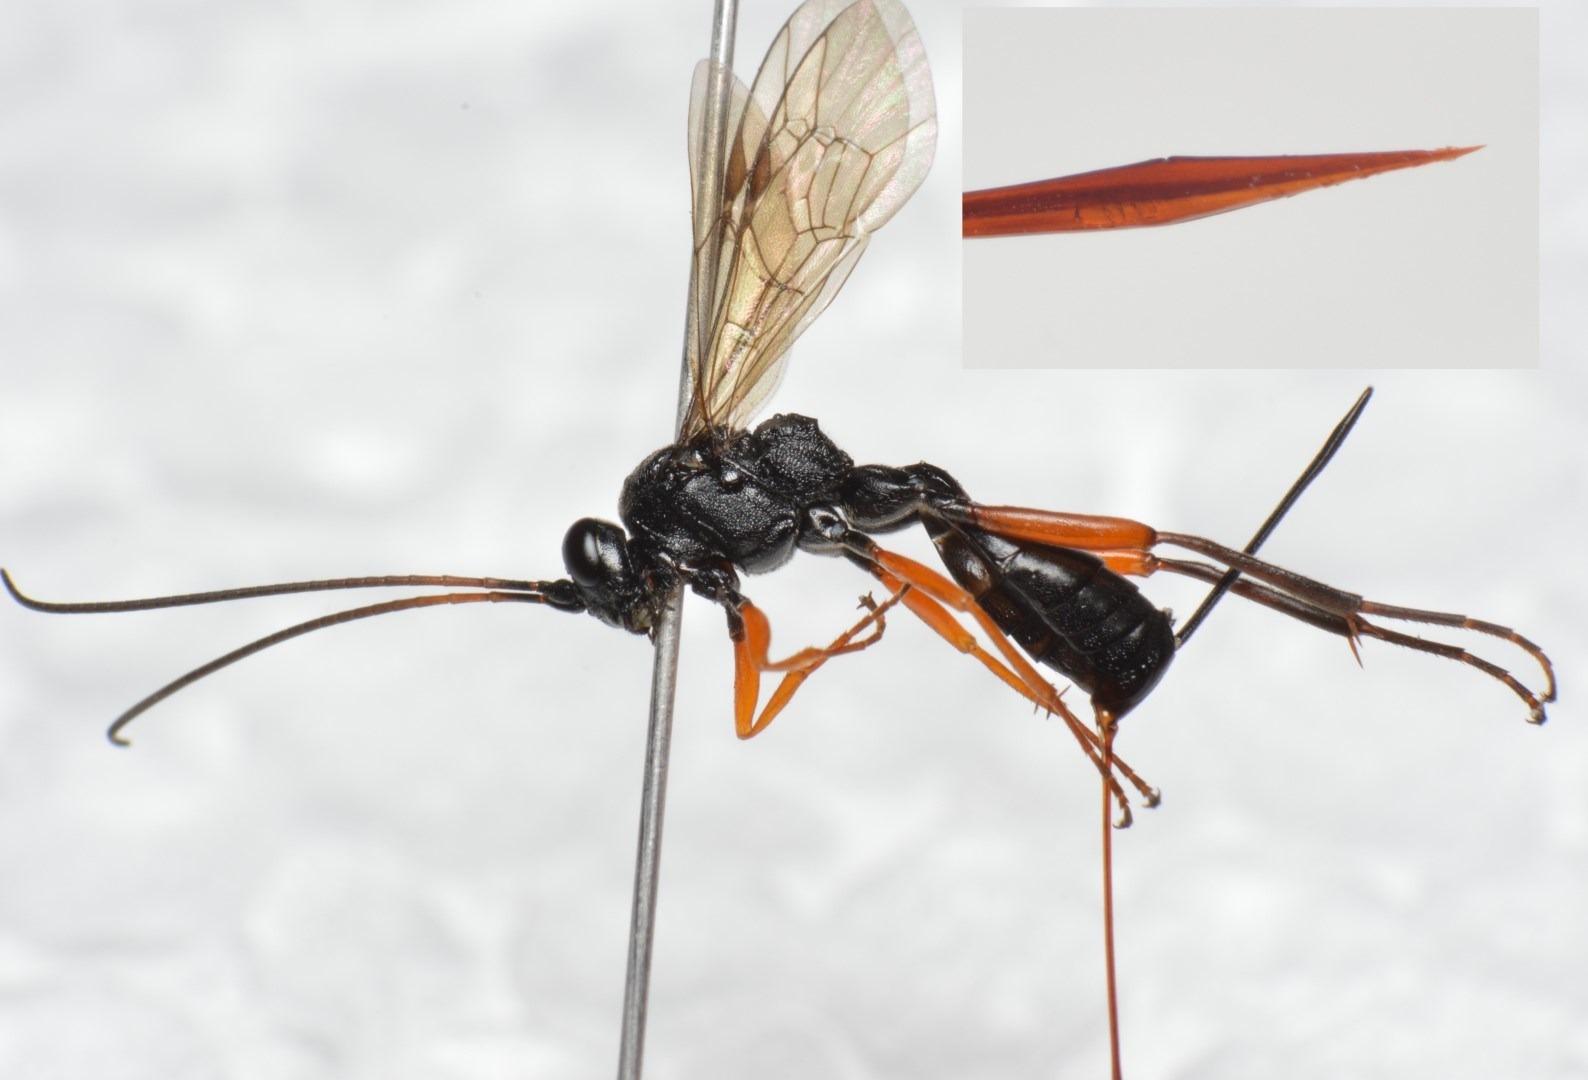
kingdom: Animalia
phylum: Arthropoda
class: Insecta
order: Hymenoptera
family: Ichneumonidae
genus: Buathra
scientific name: Buathra laborator
